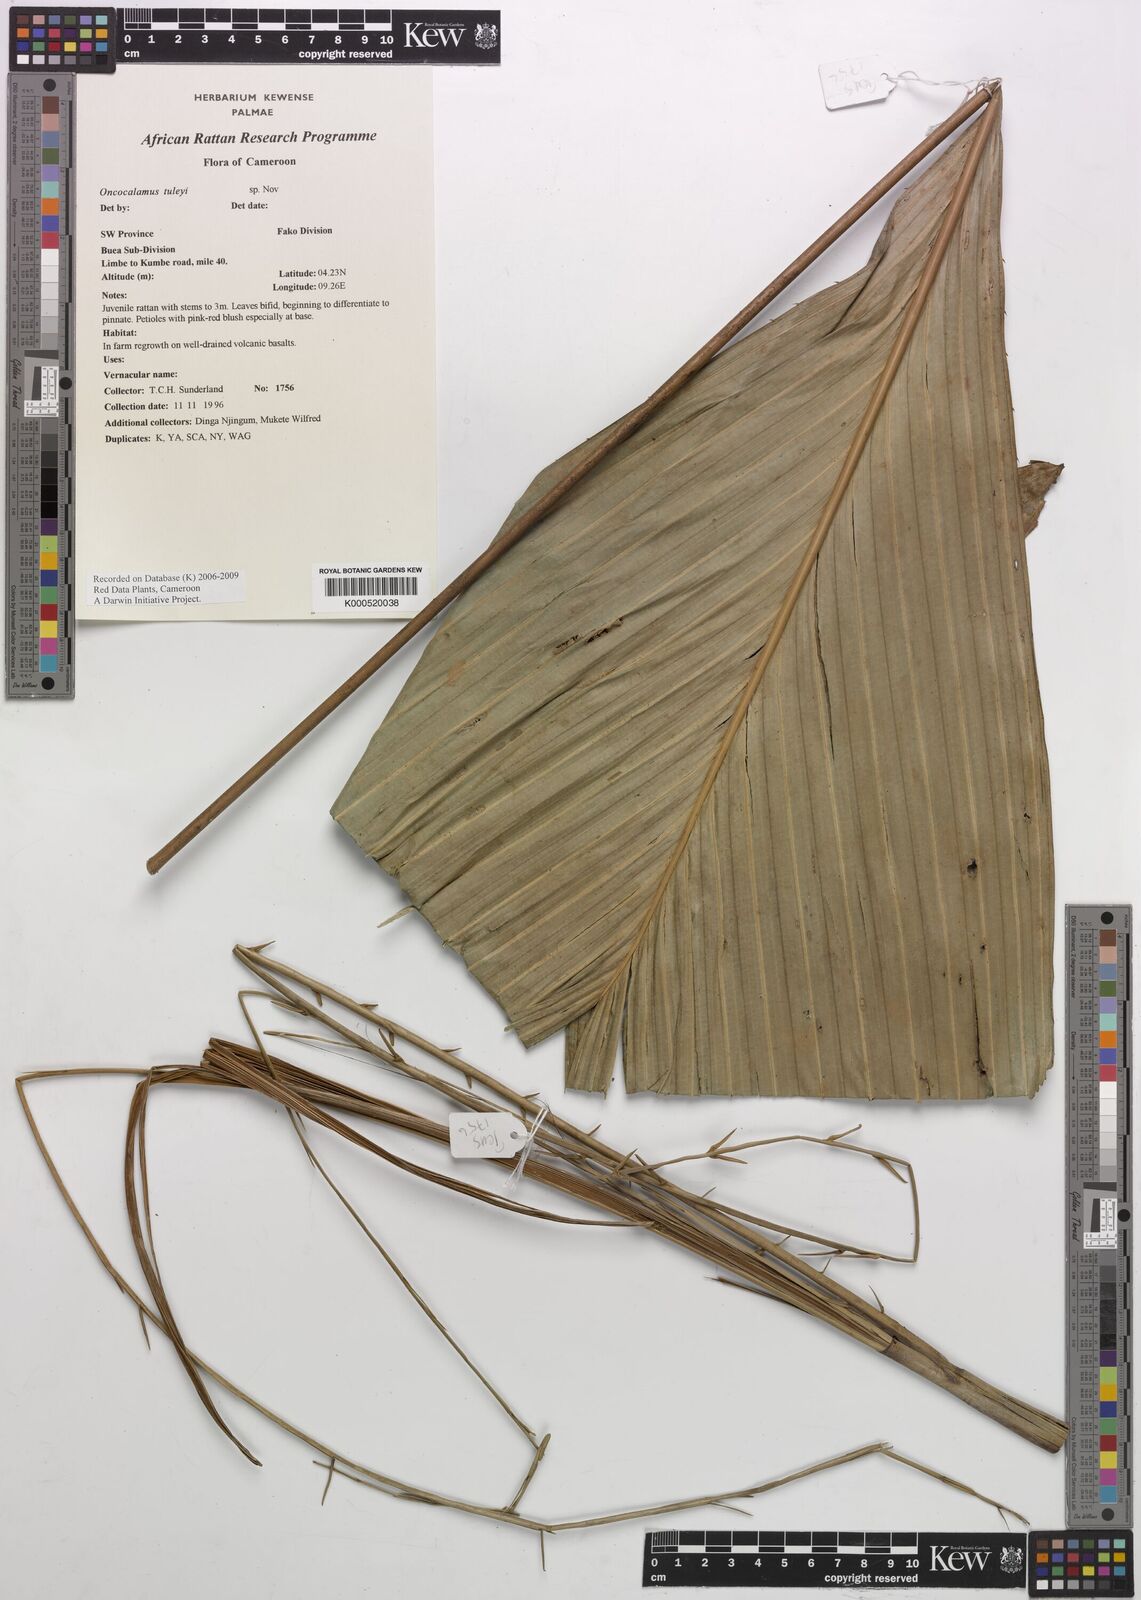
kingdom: Plantae
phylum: Tracheophyta
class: Liliopsida
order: Arecales
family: Arecaceae
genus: Oncocalamus
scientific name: Oncocalamus tuleyi
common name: Rattan
